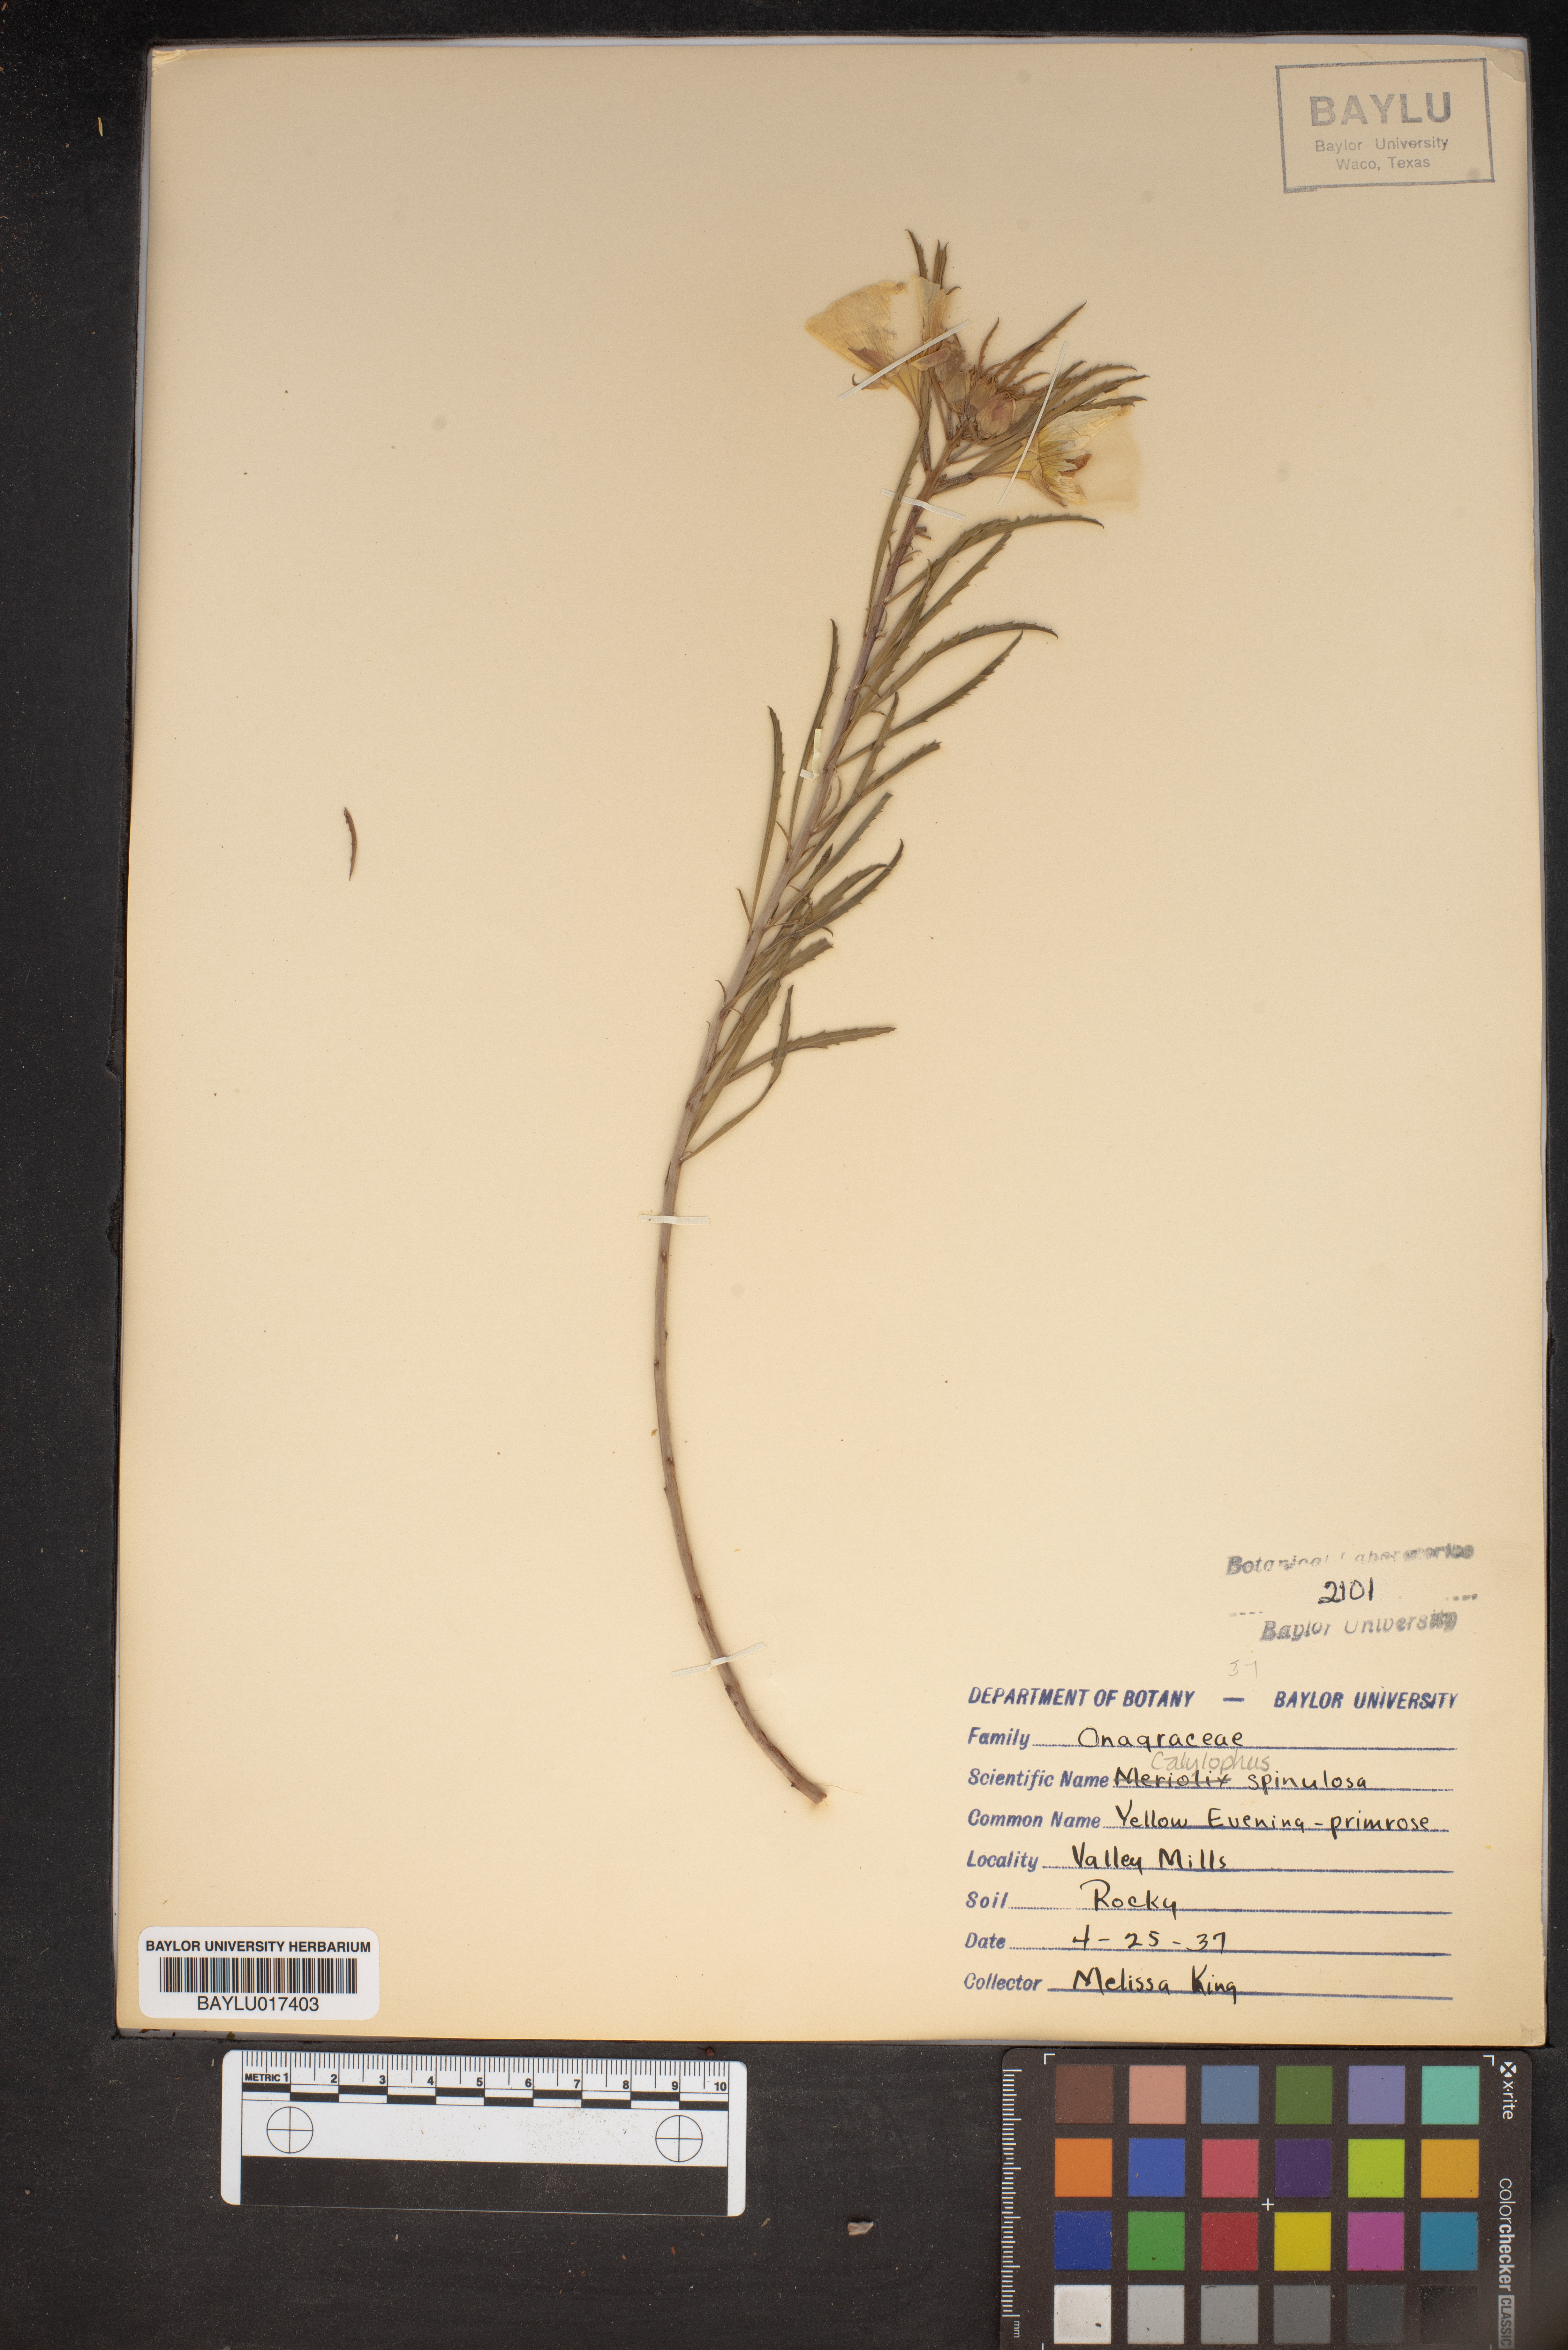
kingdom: Plantae
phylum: Tracheophyta
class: Magnoliopsida
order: Myrtales
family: Onagraceae
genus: Oenothera
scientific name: Oenothera
